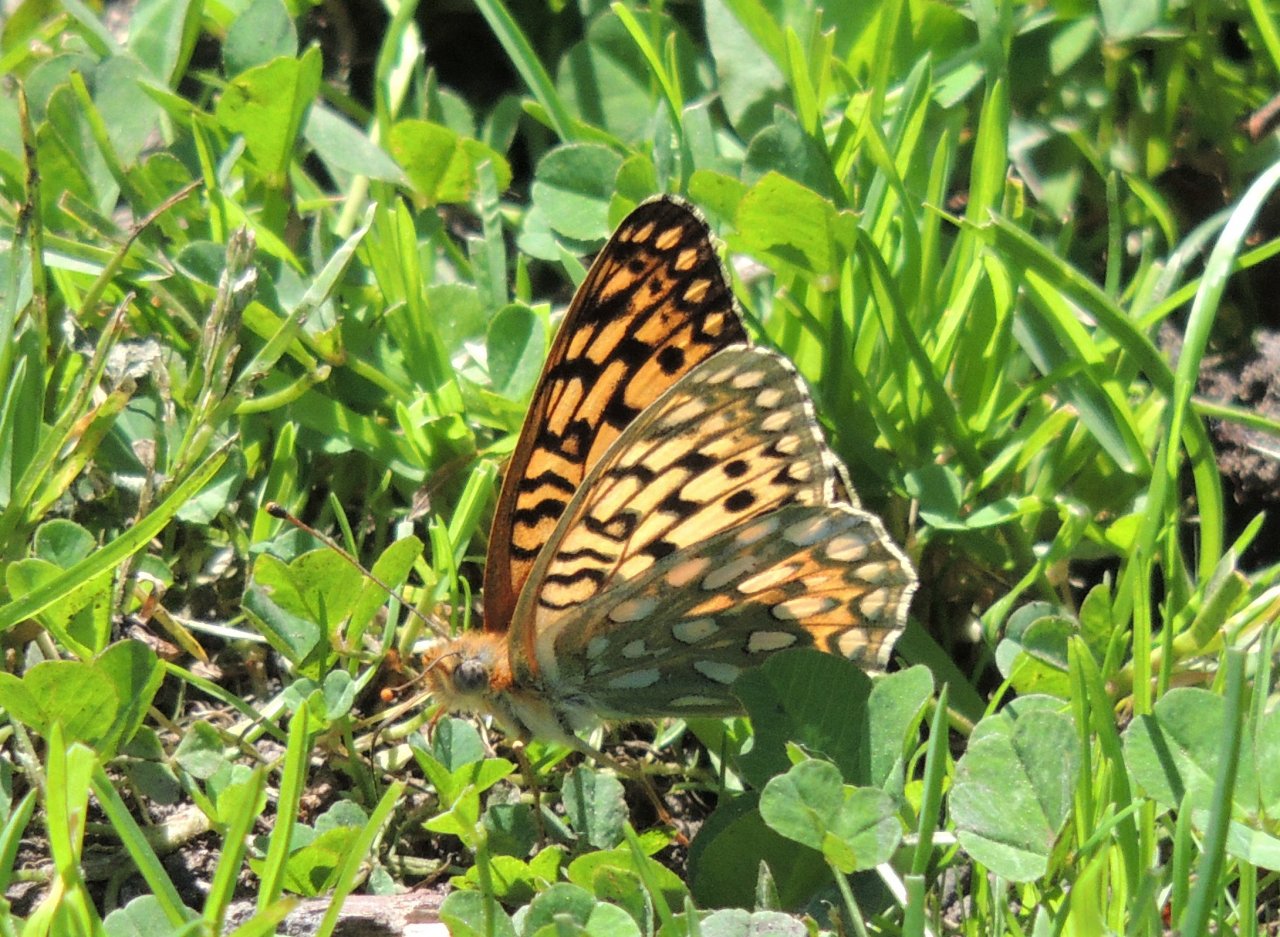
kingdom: Animalia
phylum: Arthropoda
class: Insecta
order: Lepidoptera
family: Nymphalidae
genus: Speyeria
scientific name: Speyeria callippe
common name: Callippe Fritillary
